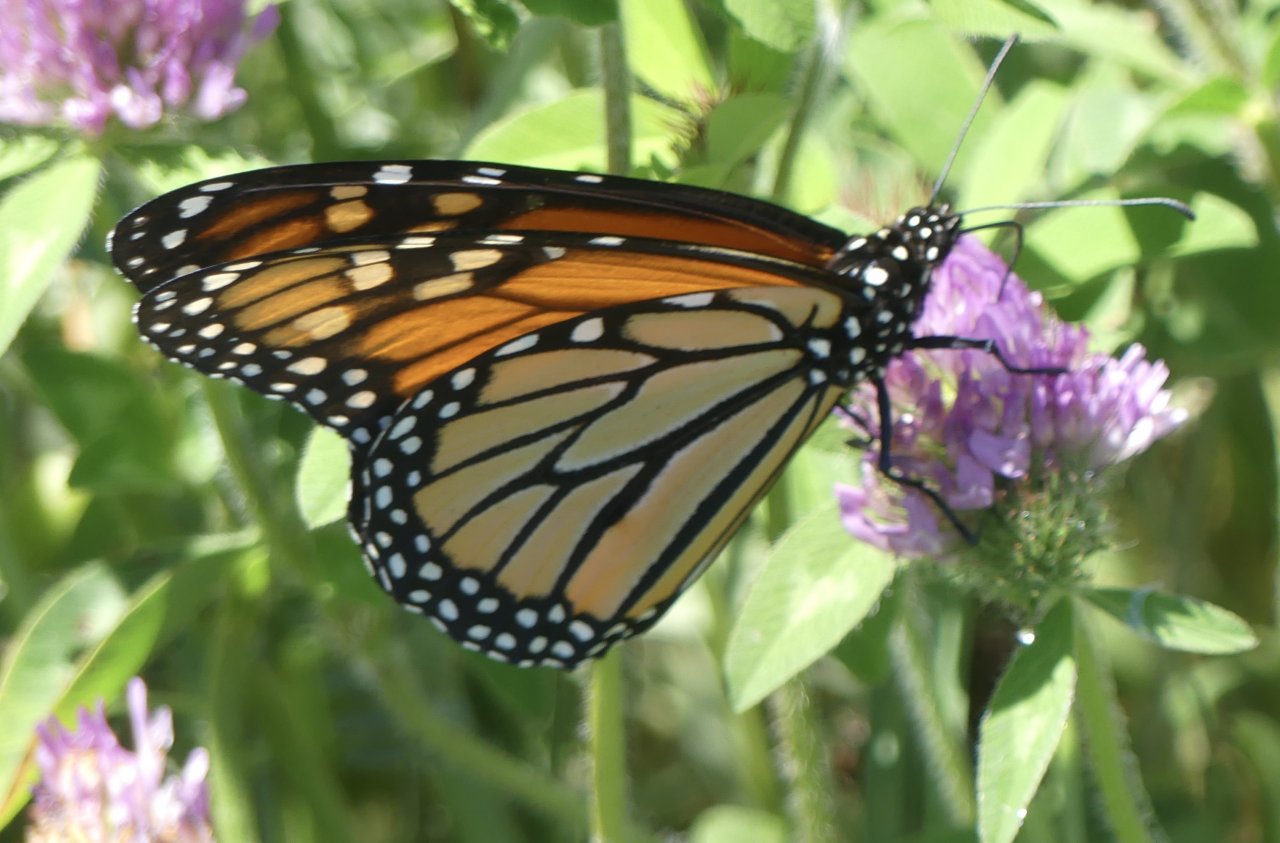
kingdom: Animalia
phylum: Arthropoda
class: Insecta
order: Lepidoptera
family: Nymphalidae
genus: Danaus
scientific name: Danaus plexippus
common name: Monarch
